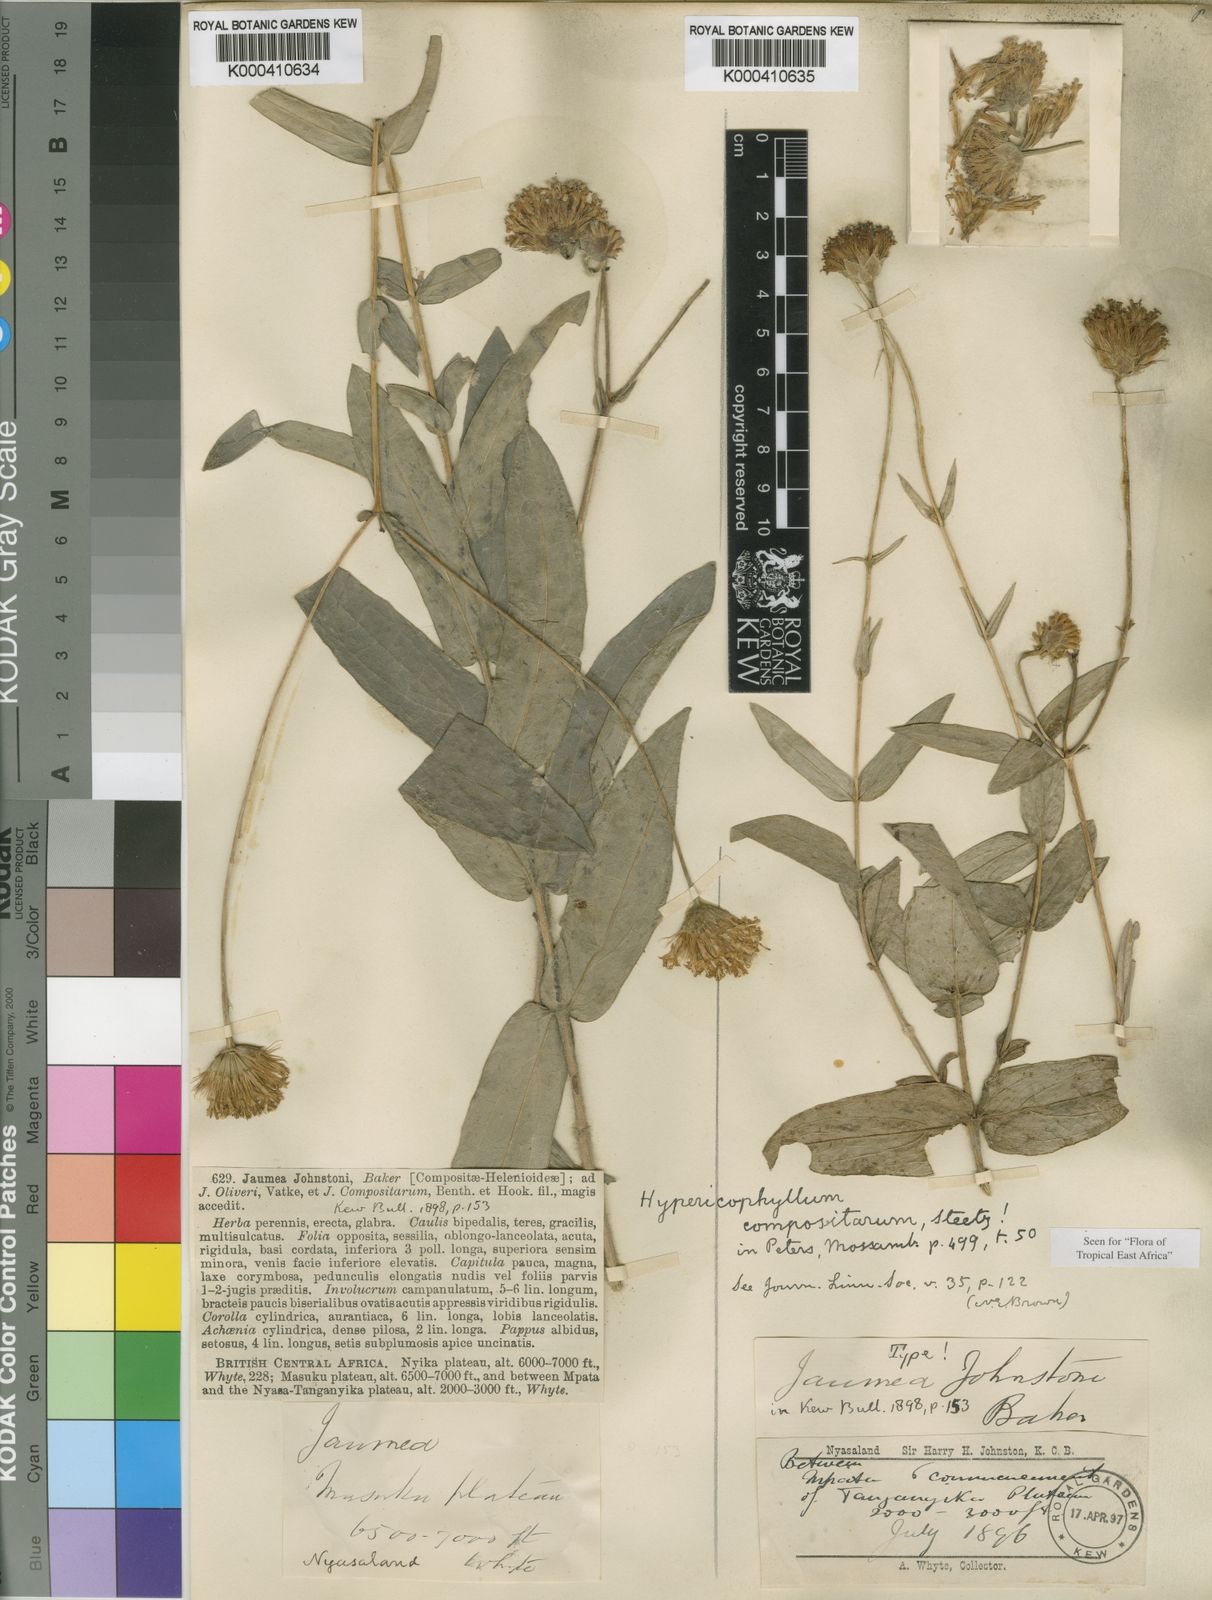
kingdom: Plantae
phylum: Tracheophyta
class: Magnoliopsida
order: Asterales
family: Asteraceae
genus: Hypericophyllum
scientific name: Hypericophyllum compositarum
